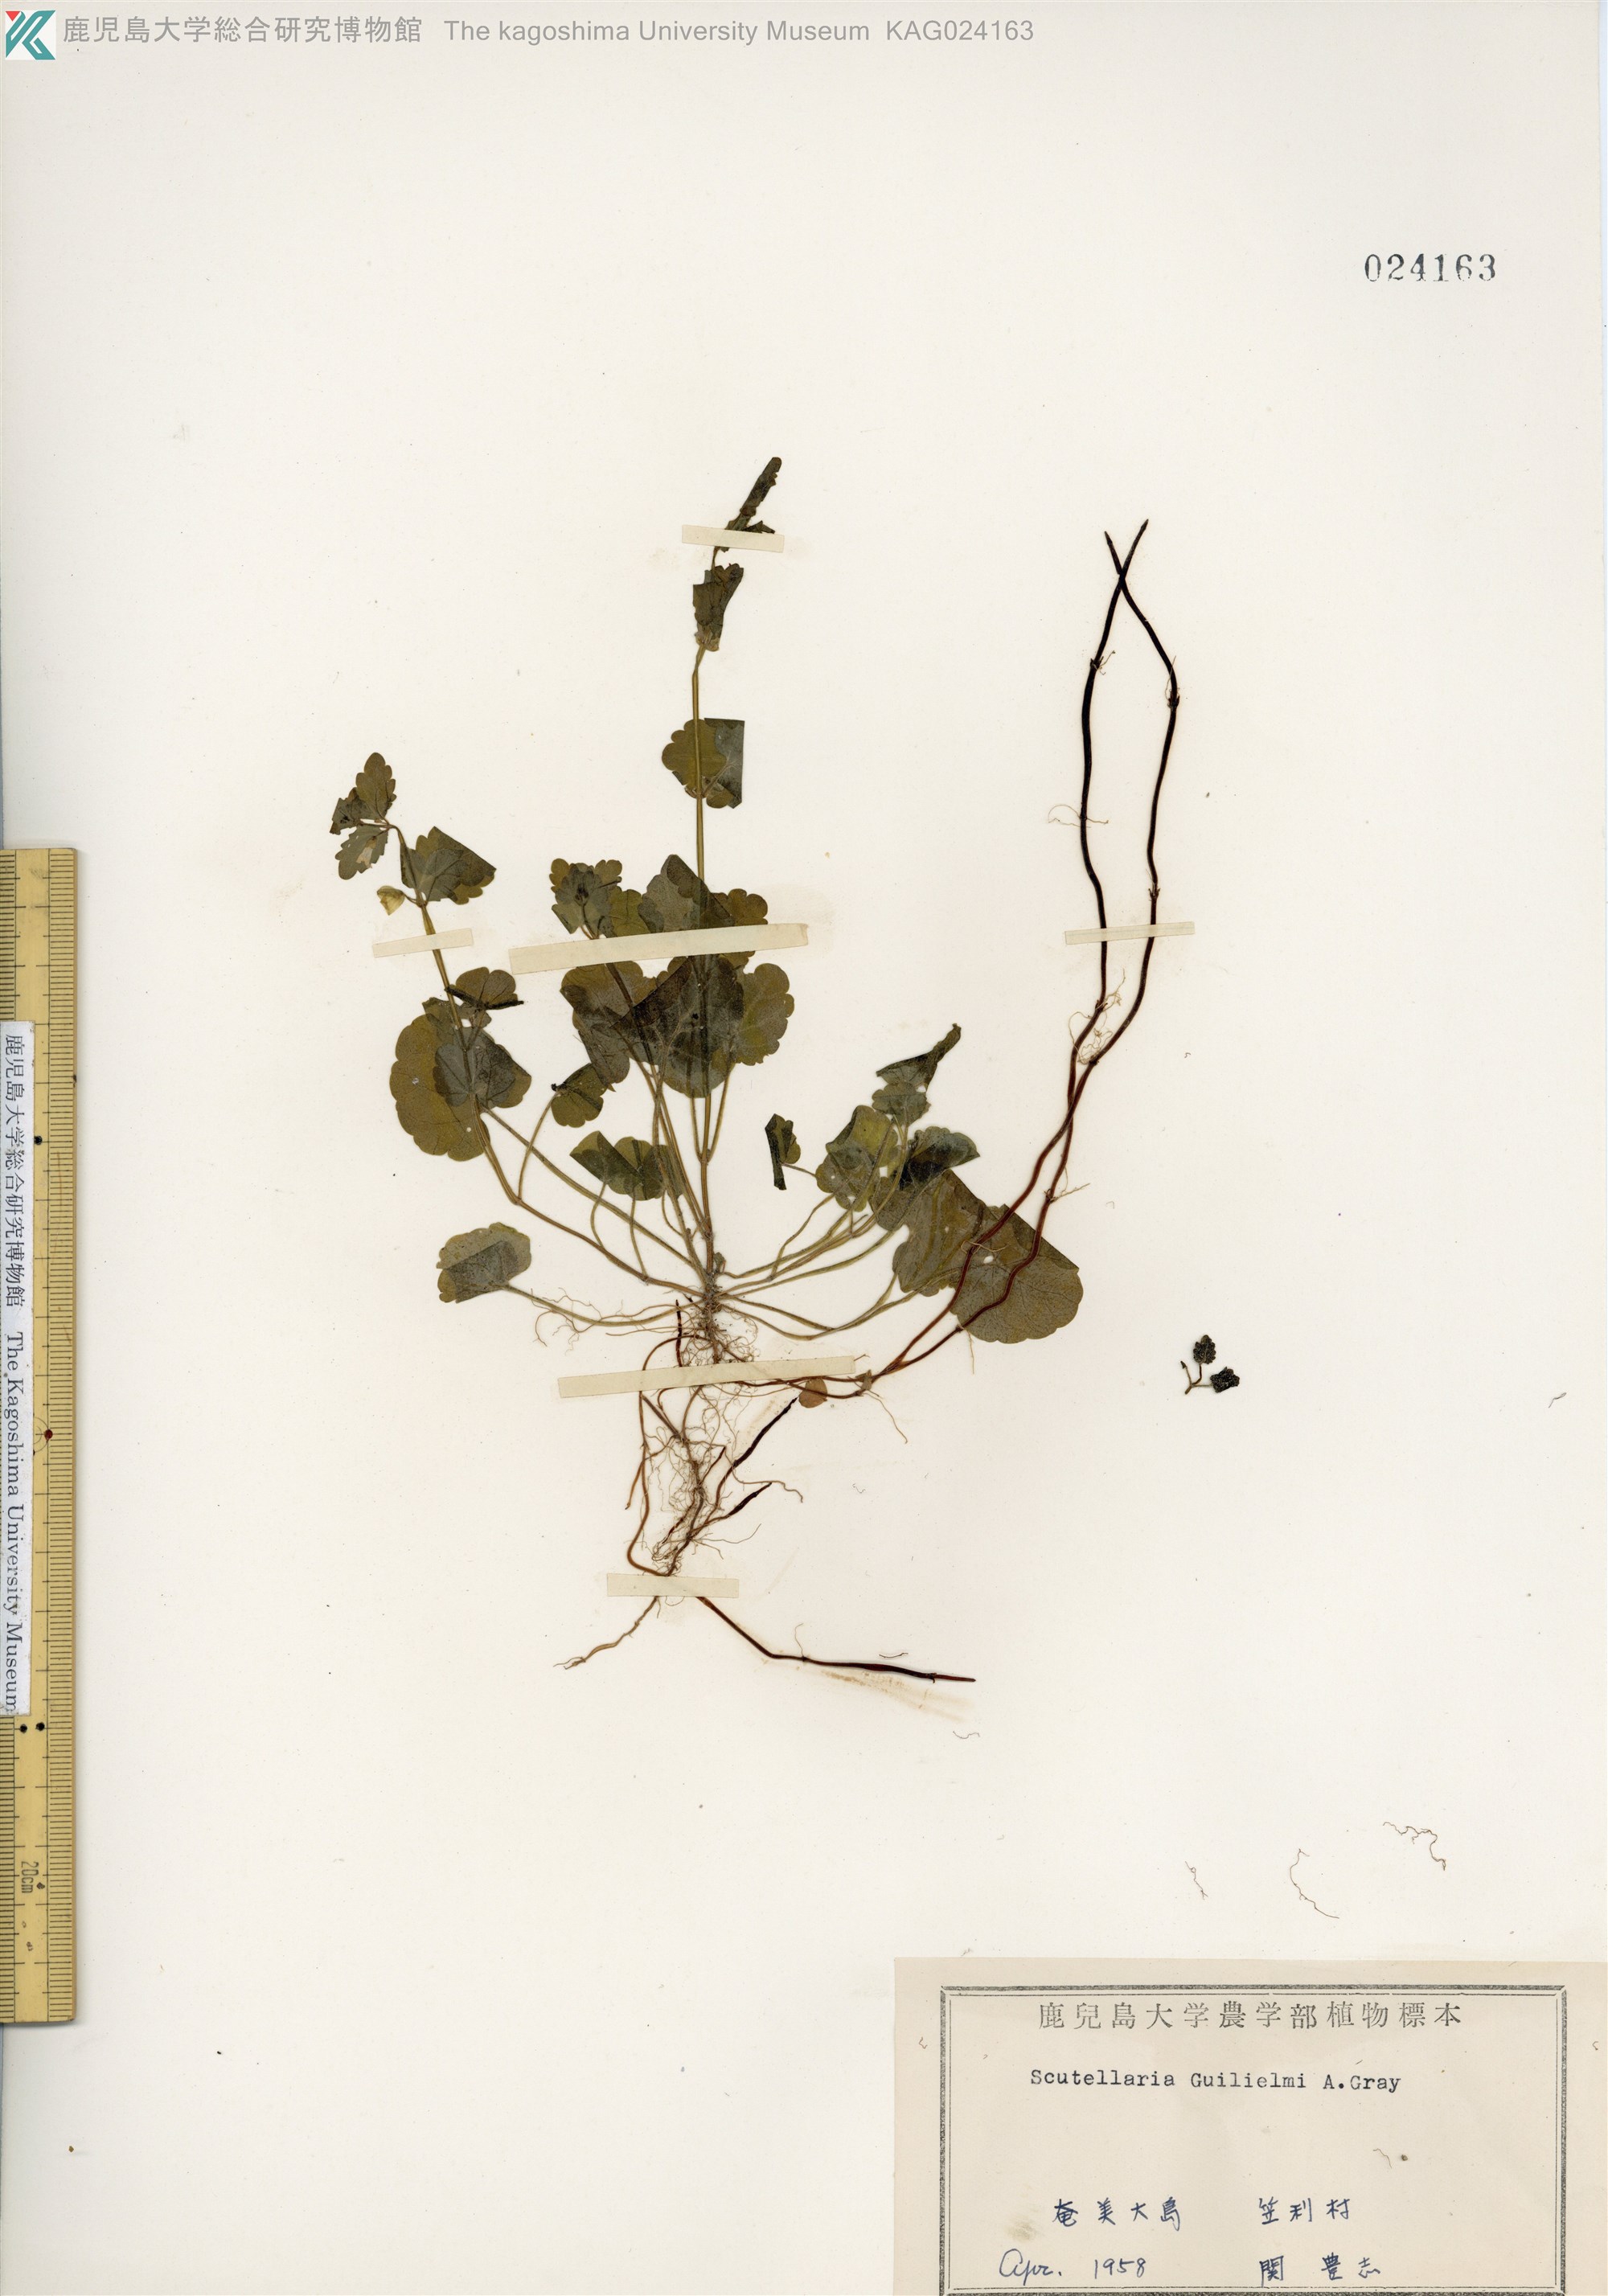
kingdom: Plantae
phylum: Tracheophyta
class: Magnoliopsida
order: Lamiales
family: Lamiaceae
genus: Scutellaria
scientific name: Scutellaria guilielmi
